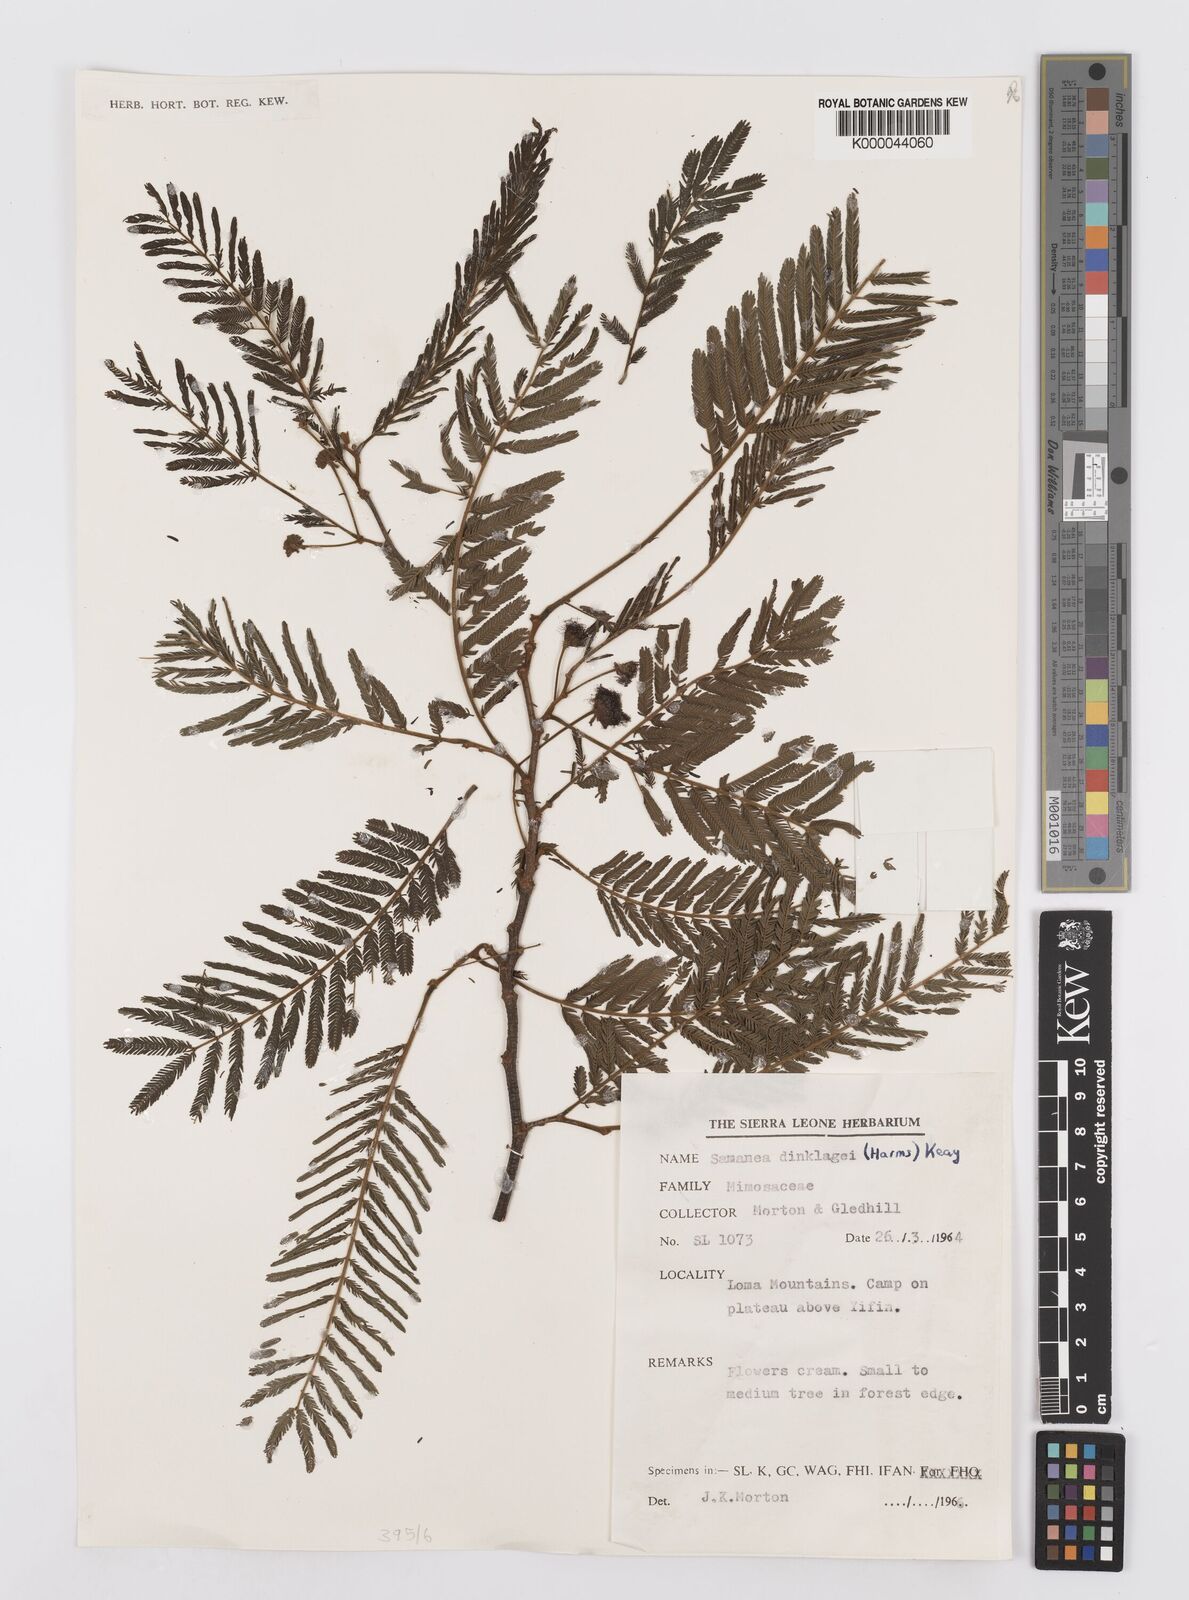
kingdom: Plantae
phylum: Tracheophyta
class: Magnoliopsida
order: Fabales
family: Fabaceae
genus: Albizia
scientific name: Albizia dinklagei
